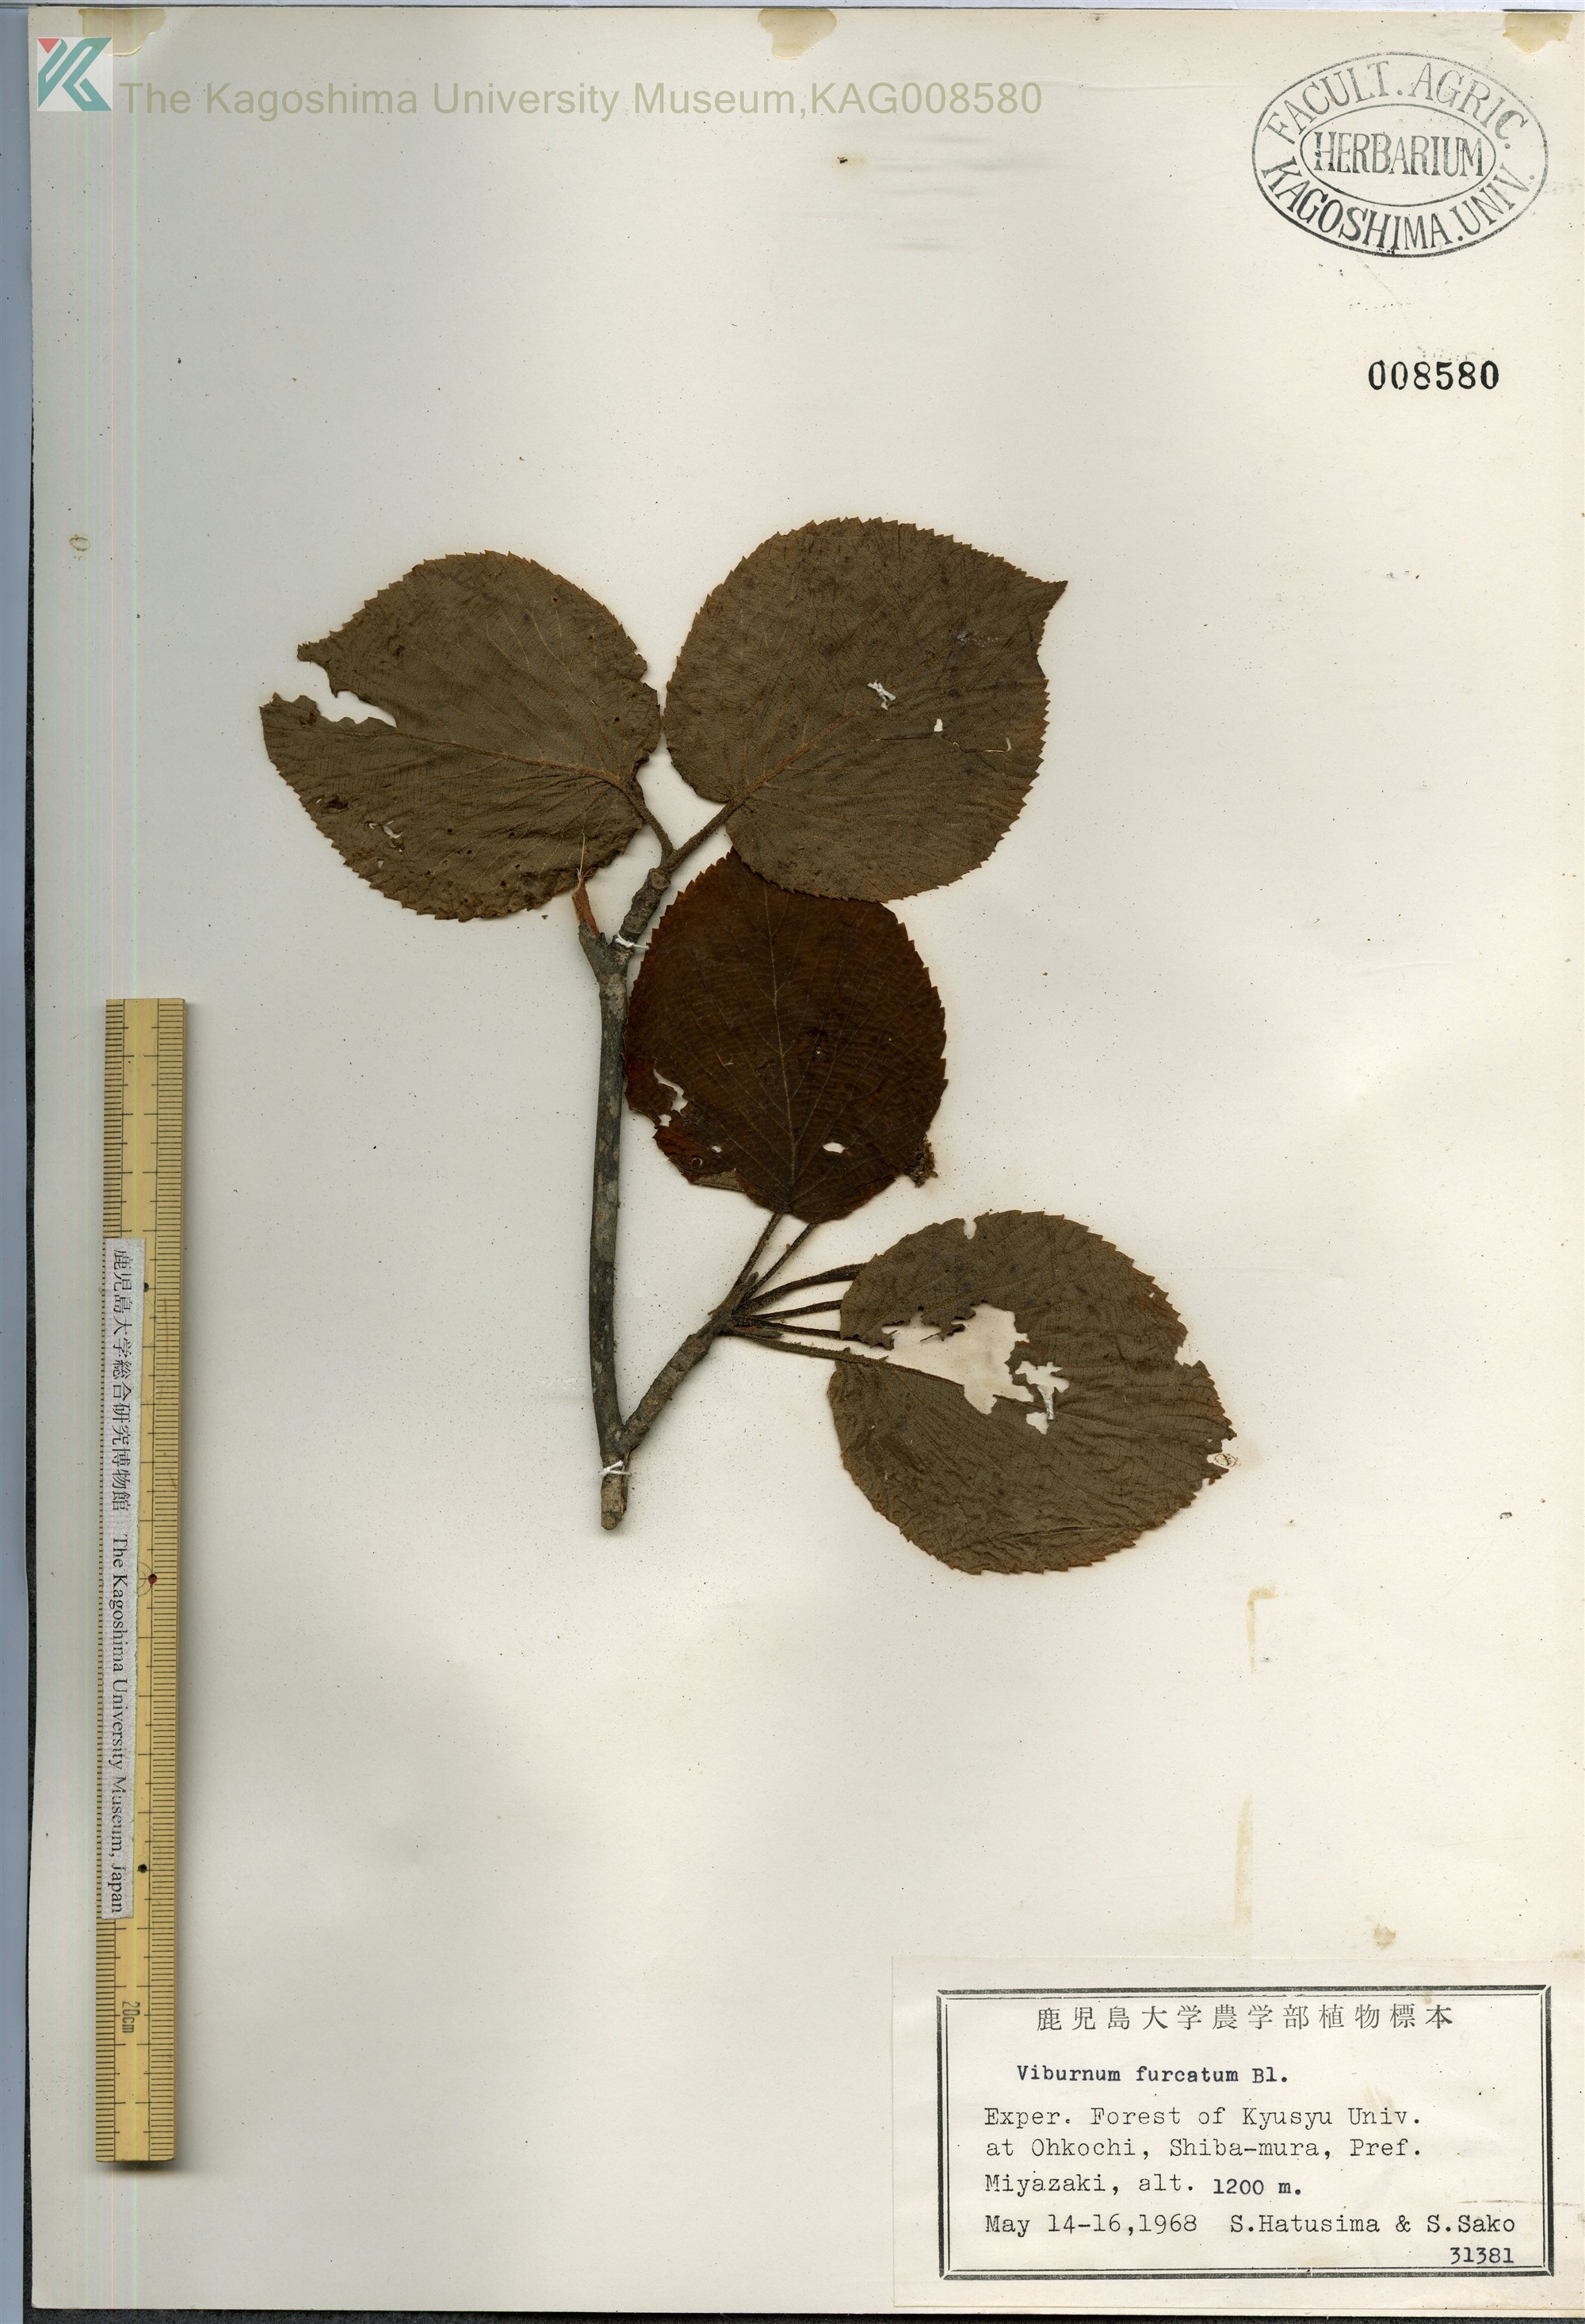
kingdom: Plantae
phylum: Tracheophyta
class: Magnoliopsida
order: Dipsacales
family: Viburnaceae
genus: Viburnum
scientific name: Viburnum furcatum
